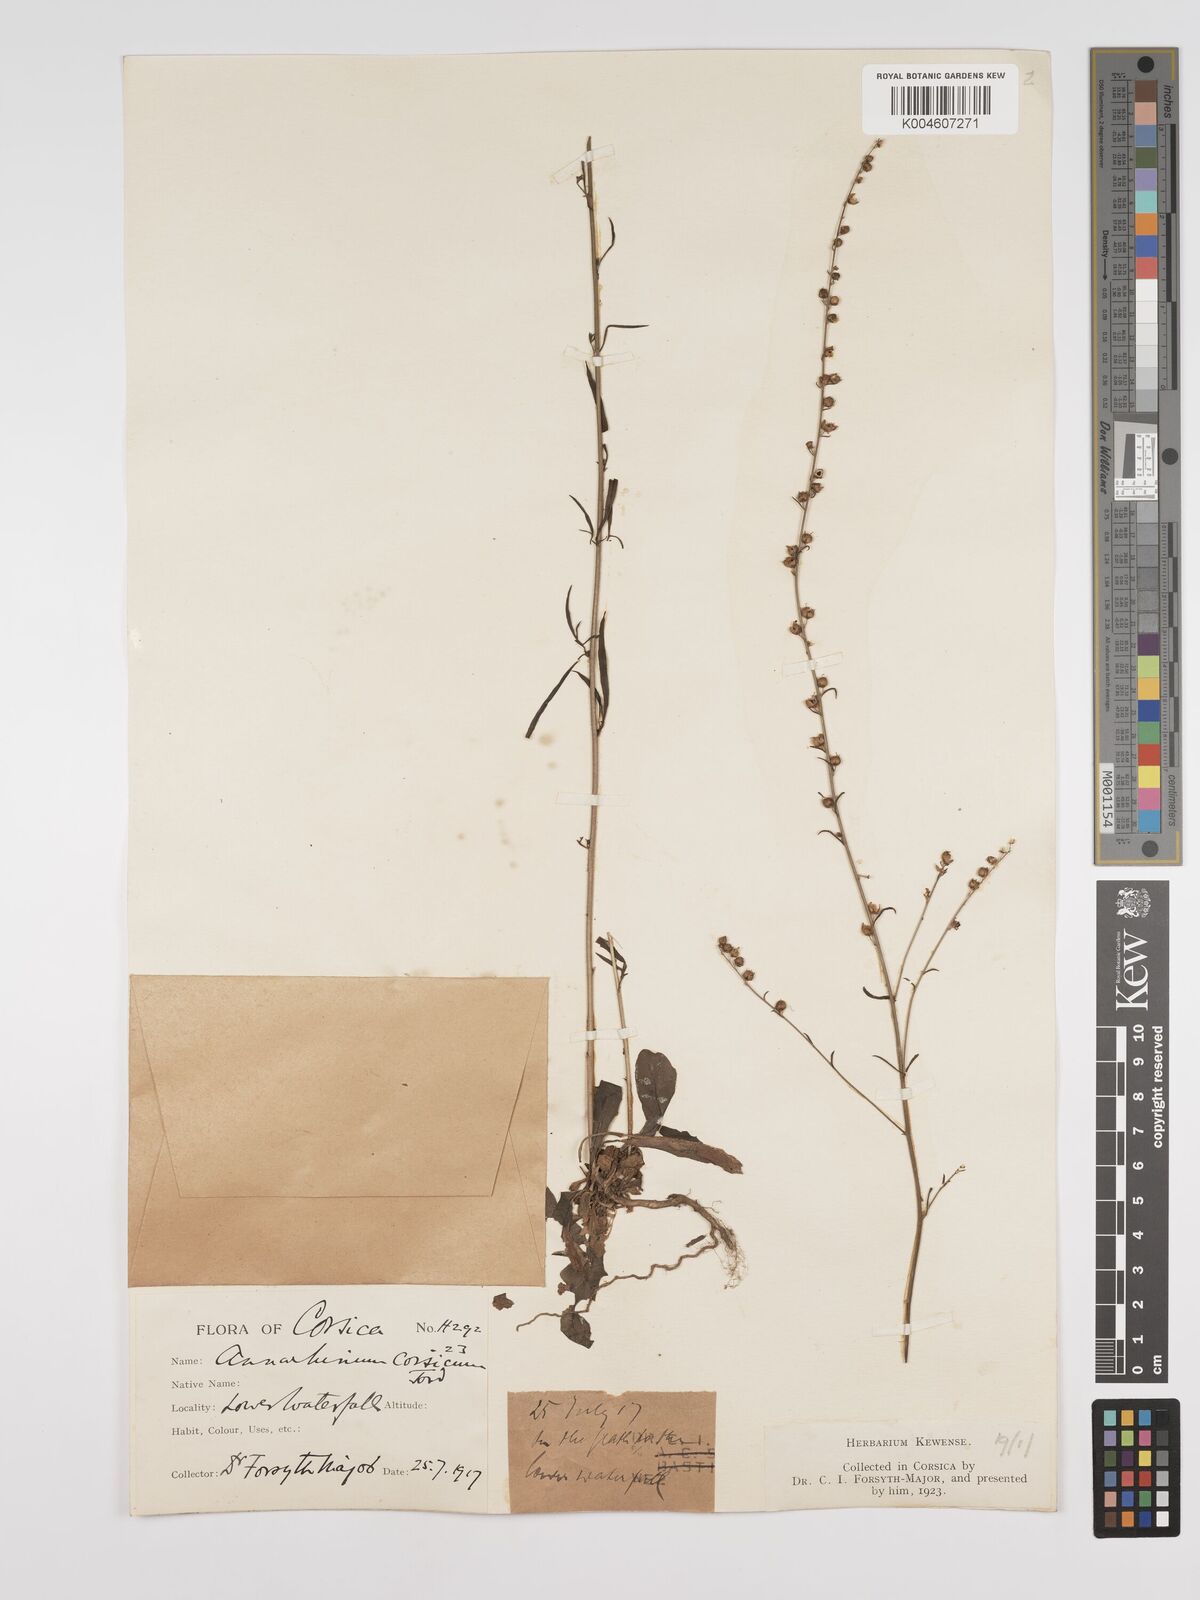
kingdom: Plantae
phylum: Tracheophyta
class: Magnoliopsida
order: Lamiales
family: Plantaginaceae
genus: Anarrhinum
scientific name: Anarrhinum corsicum
